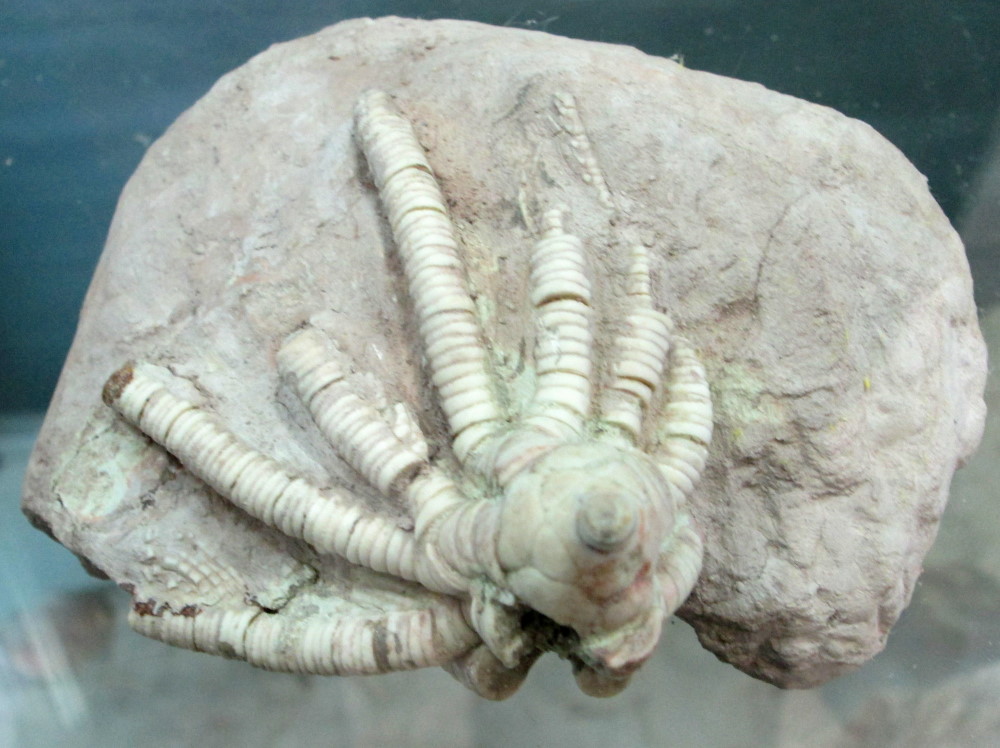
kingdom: Animalia
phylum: Echinodermata
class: Crinoidea
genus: Pegocrinus
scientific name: Pegocrinus Poteriocrinus bijugus
